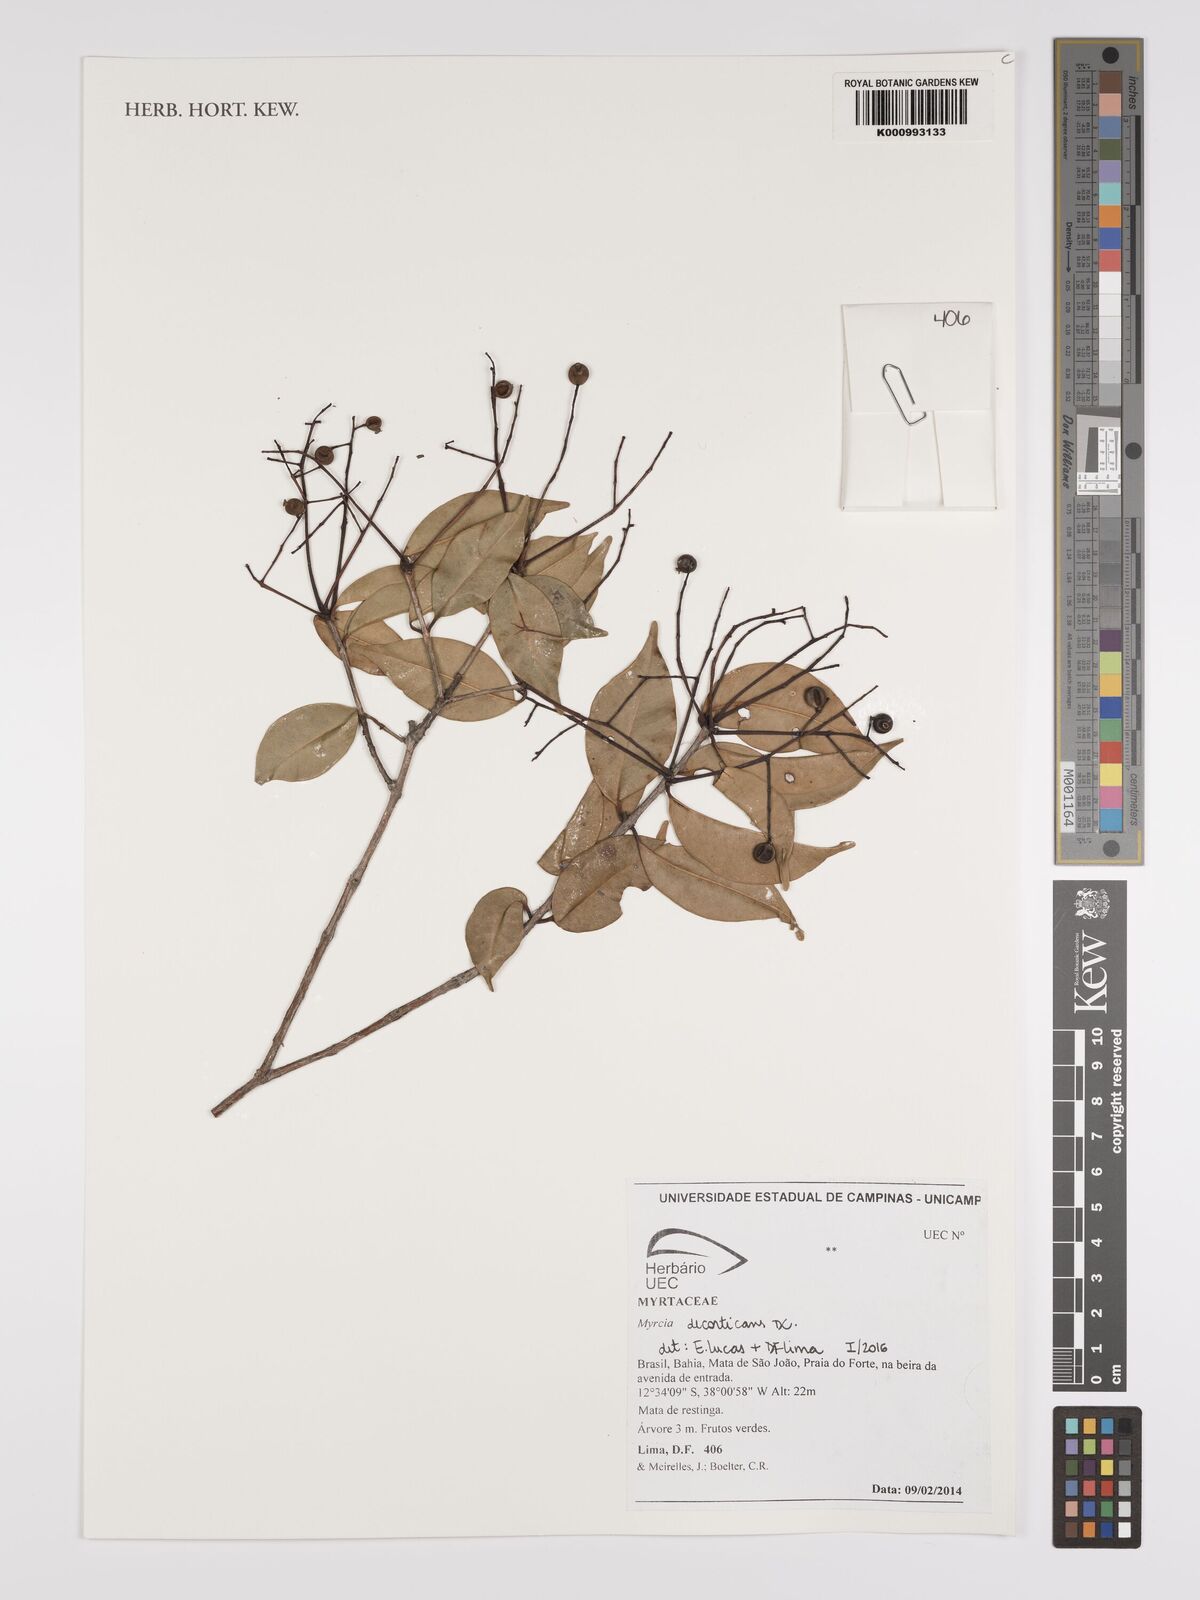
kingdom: Plantae
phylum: Tracheophyta
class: Magnoliopsida
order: Myrtales
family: Myrtaceae
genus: Myrcia
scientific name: Myrcia decorticans
